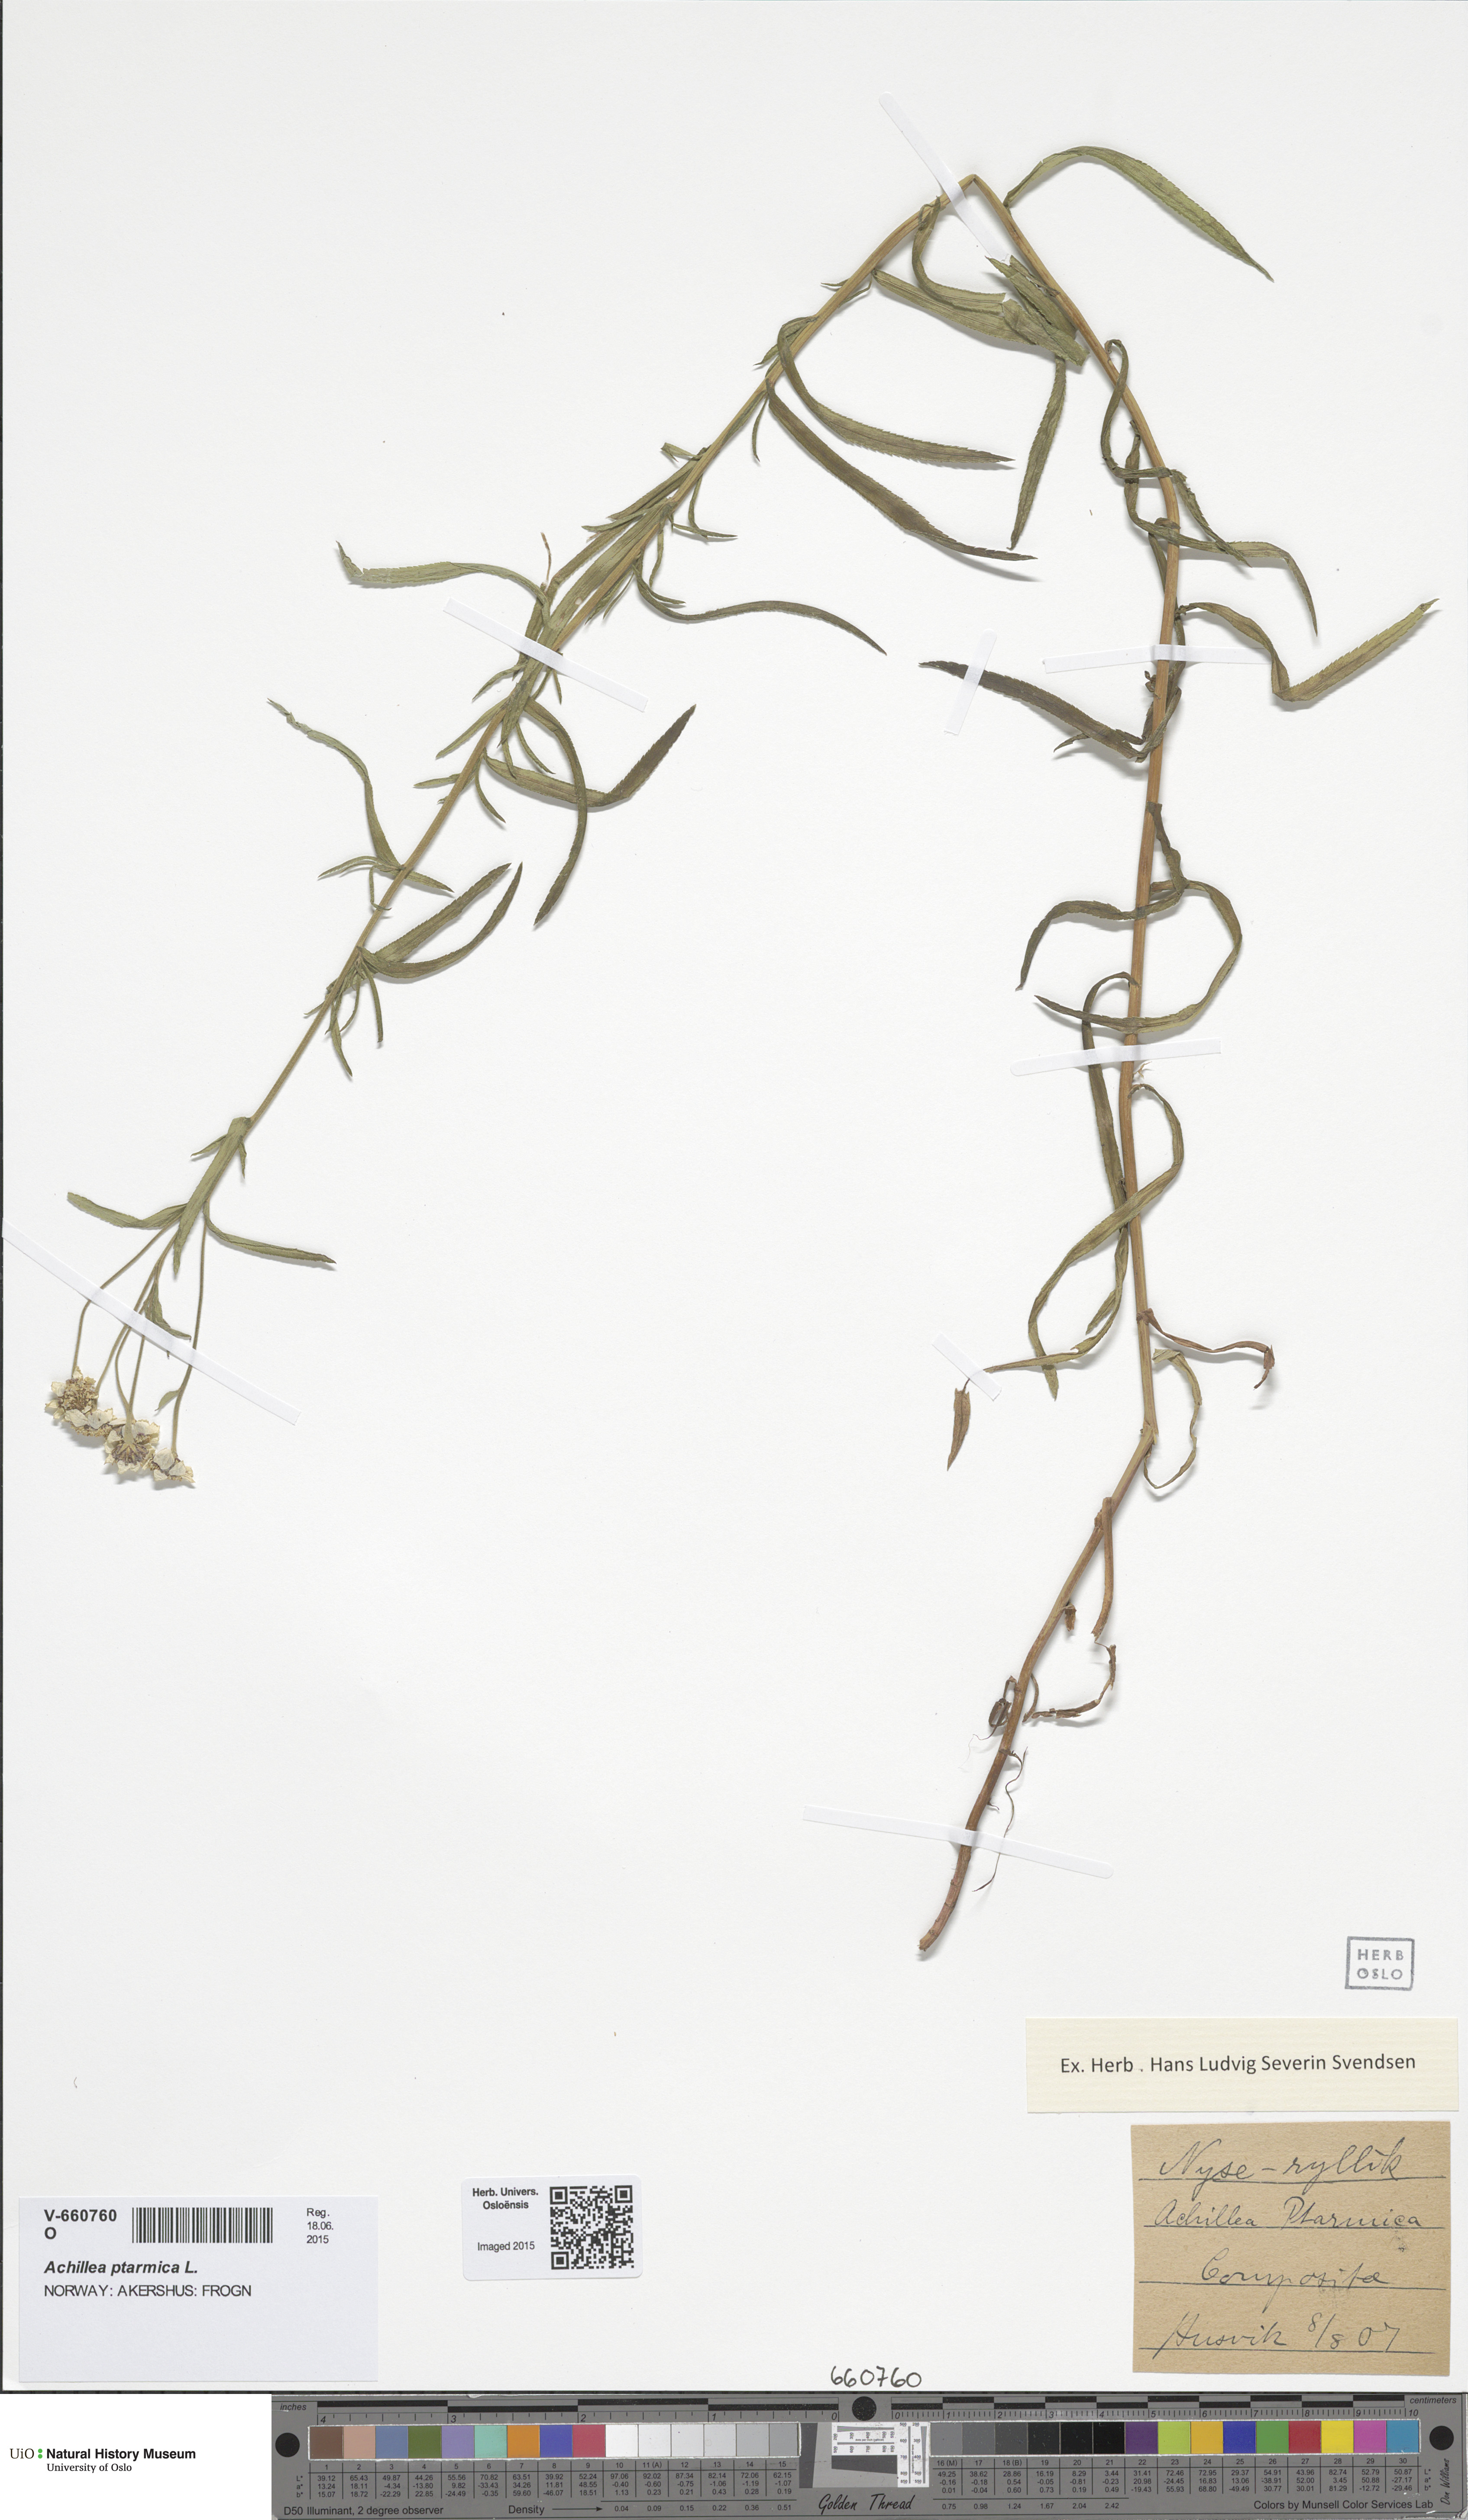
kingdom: Plantae
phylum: Tracheophyta
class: Magnoliopsida
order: Asterales
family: Asteraceae
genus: Achillea
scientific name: Achillea ptarmica
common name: Sneezeweed
